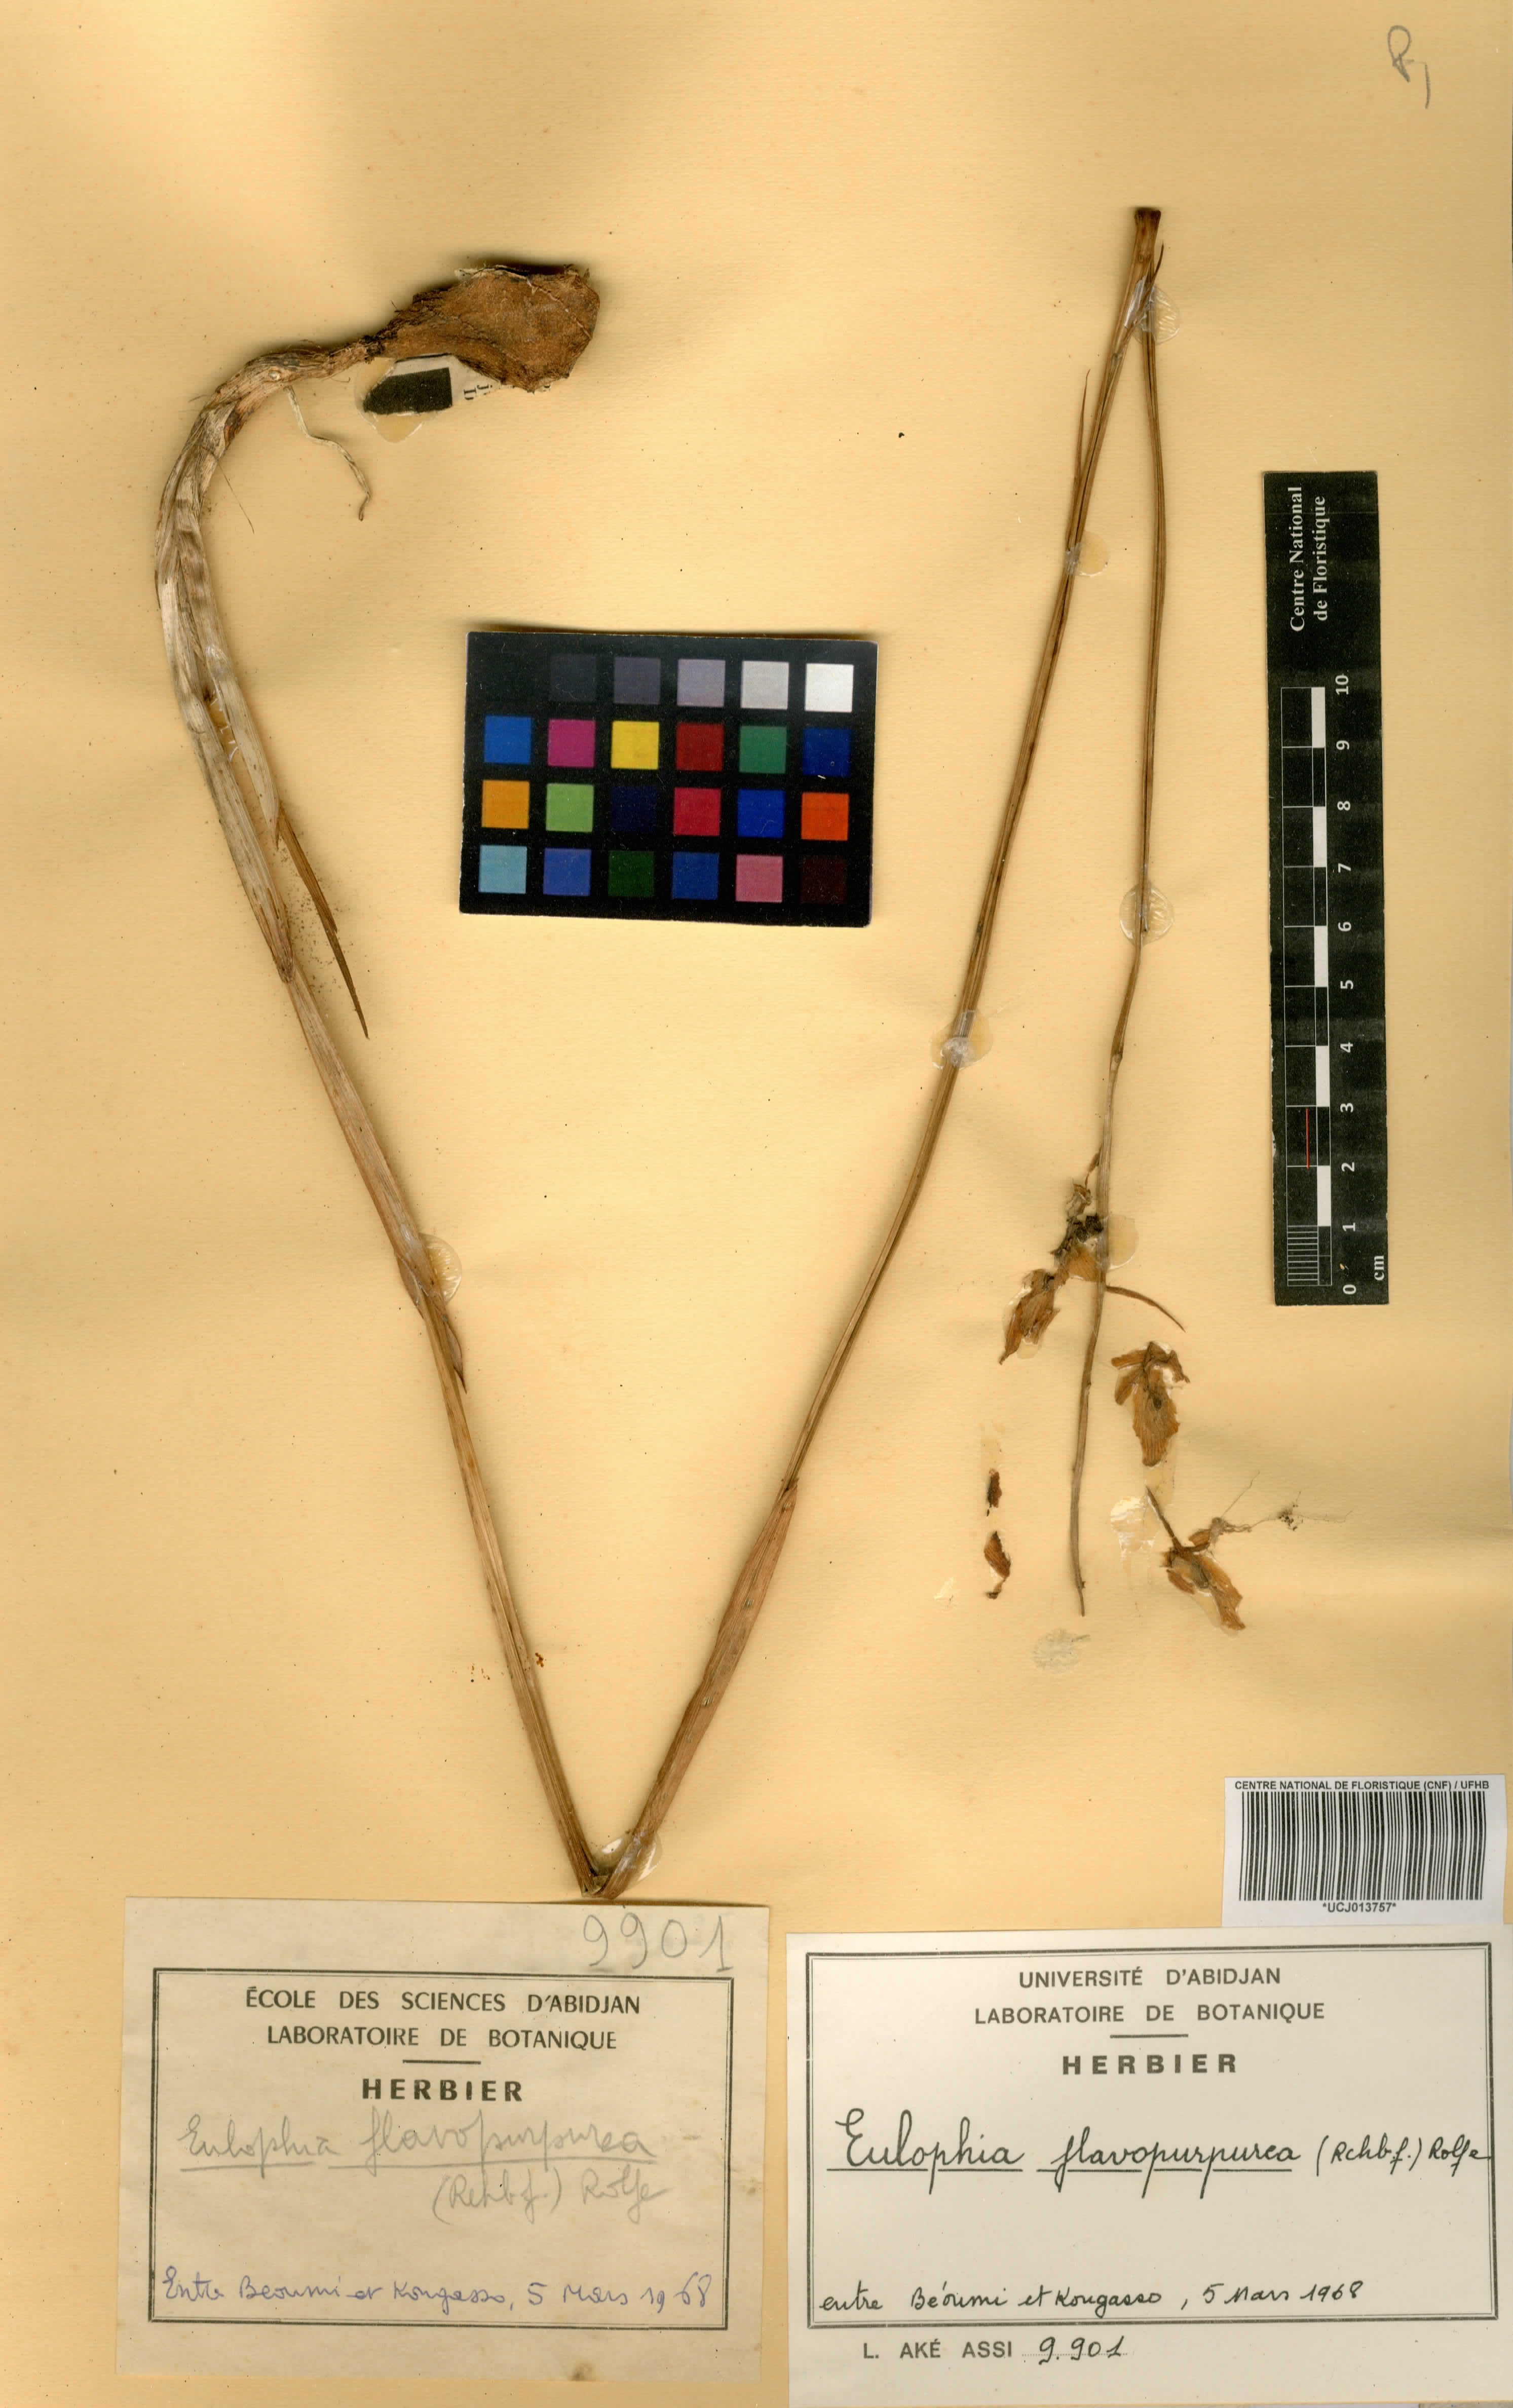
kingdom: Plantae
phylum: Tracheophyta
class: Liliopsida
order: Asparagales
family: Orchidaceae
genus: Eulophia
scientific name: Eulophia flavopurpurea
